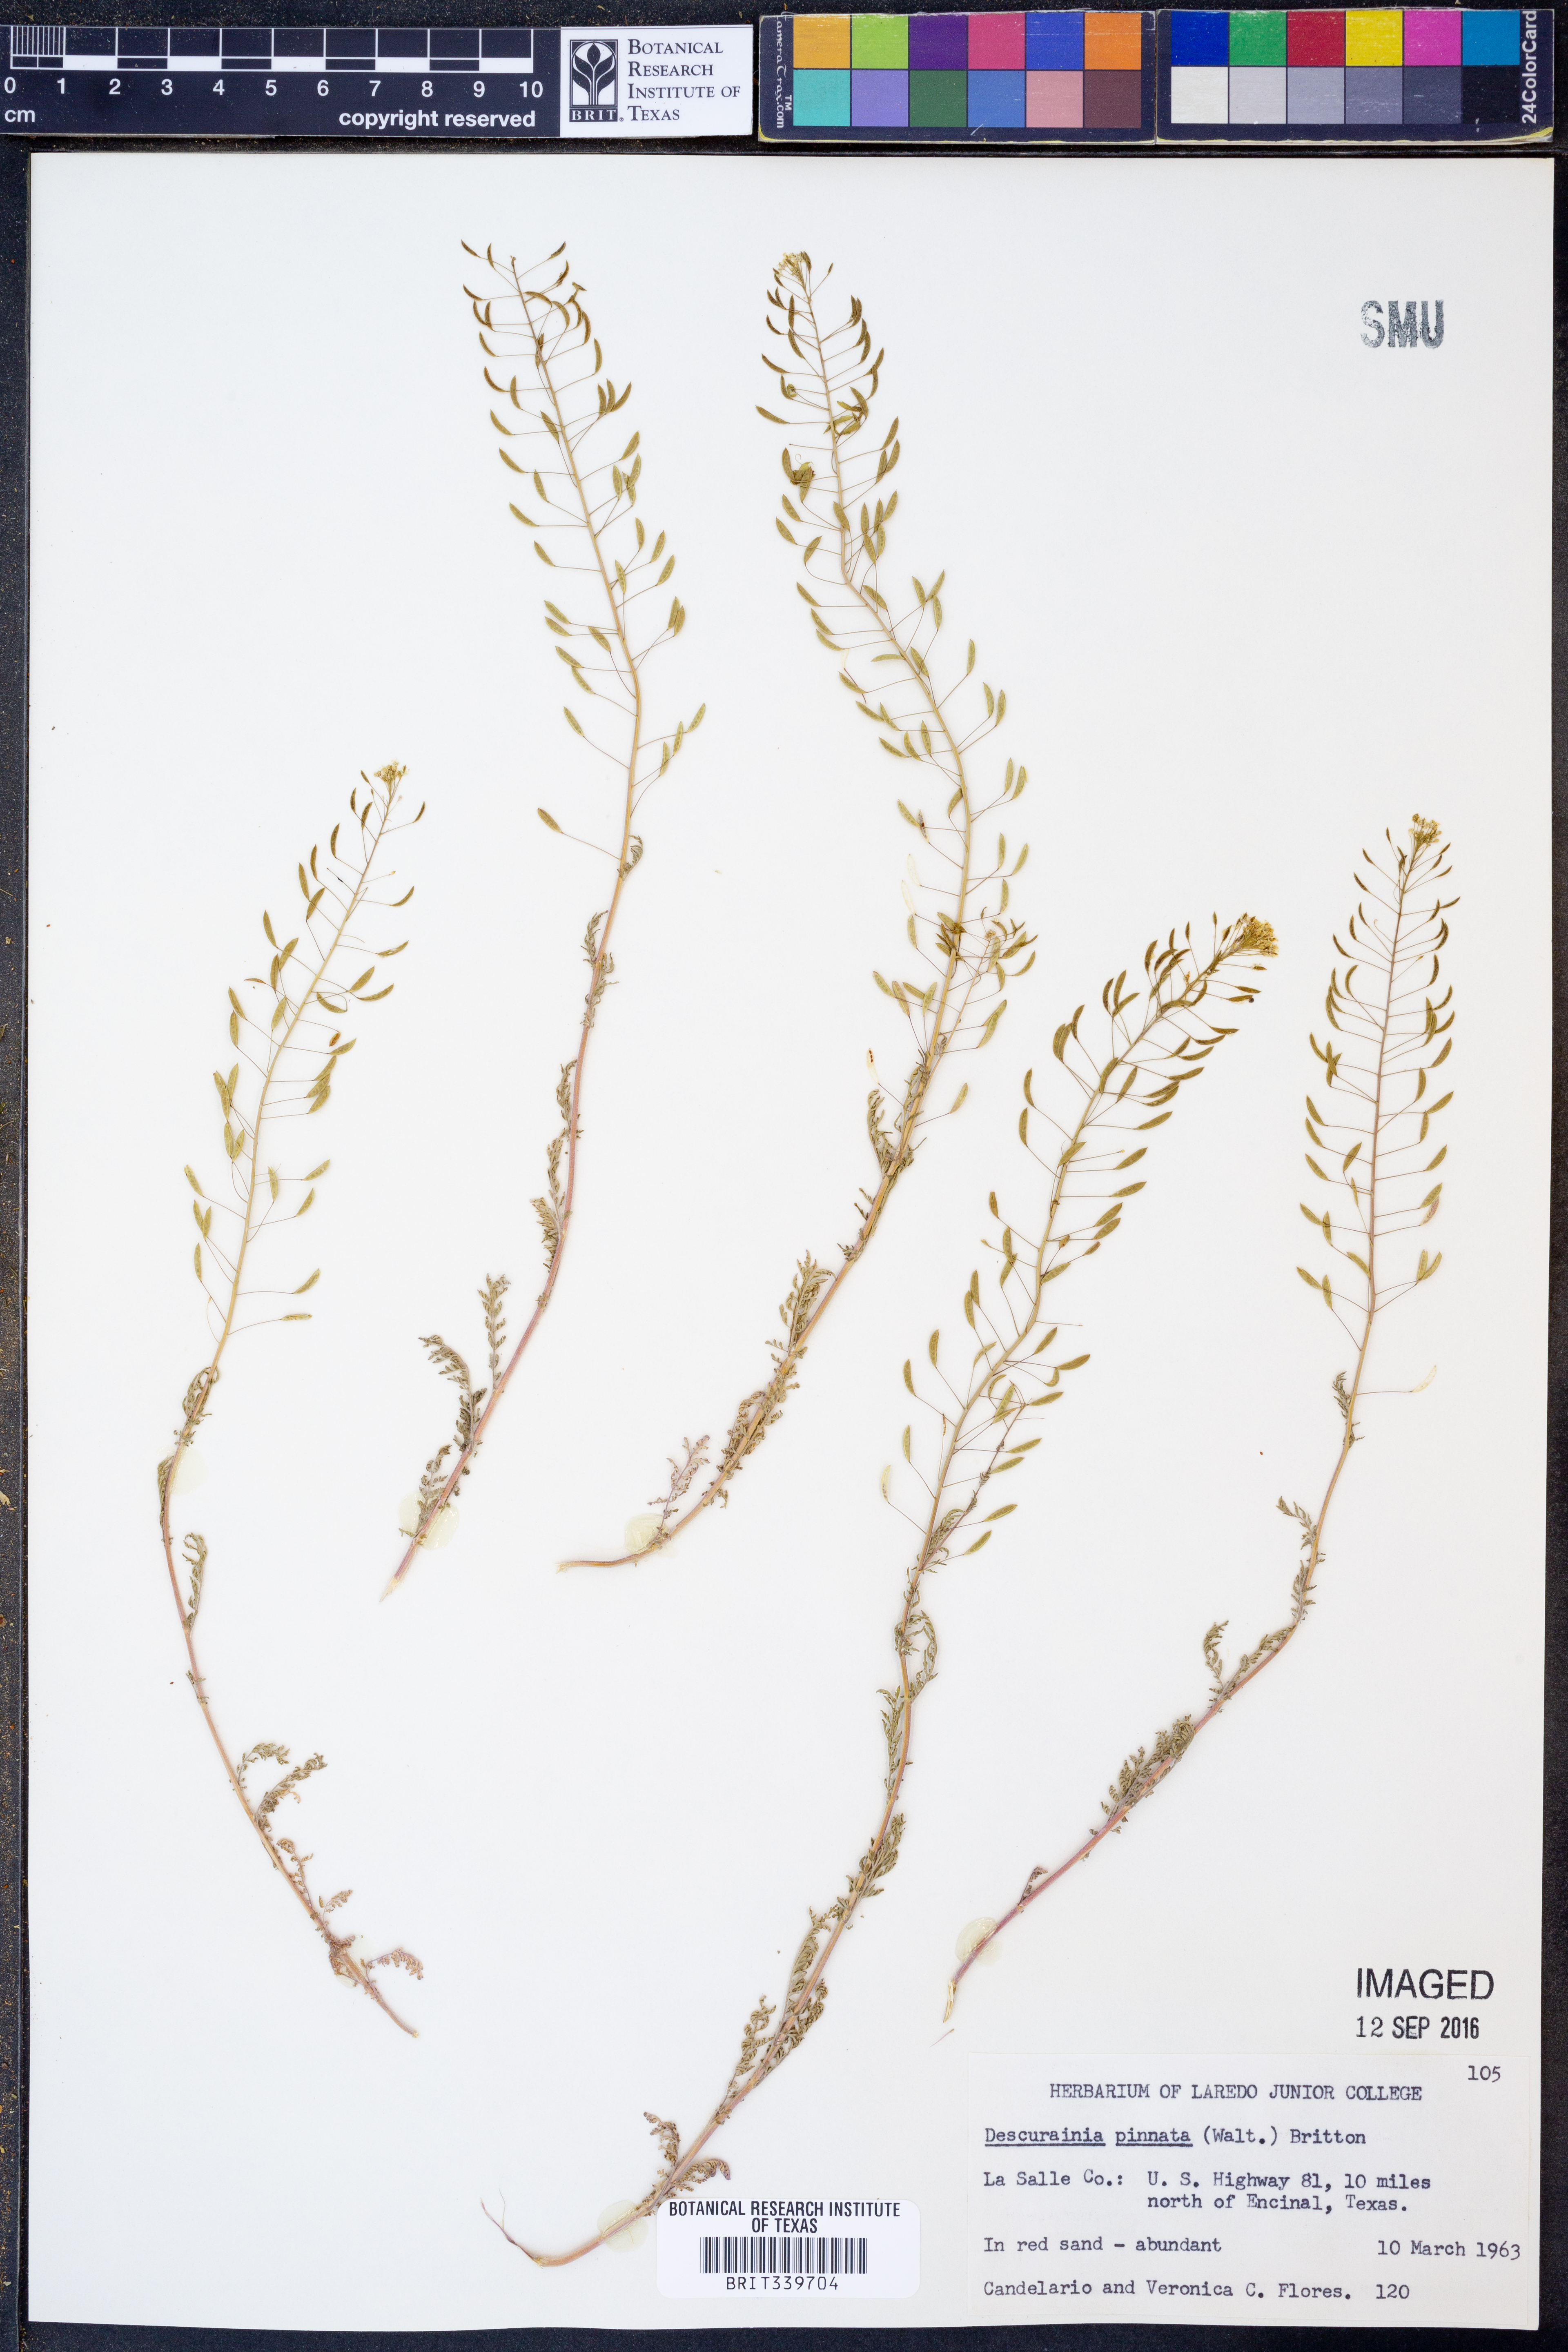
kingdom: Plantae
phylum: Tracheophyta
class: Magnoliopsida
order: Brassicales
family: Brassicaceae
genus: Descurainia
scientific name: Descurainia pinnata
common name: Western tansy mustard
